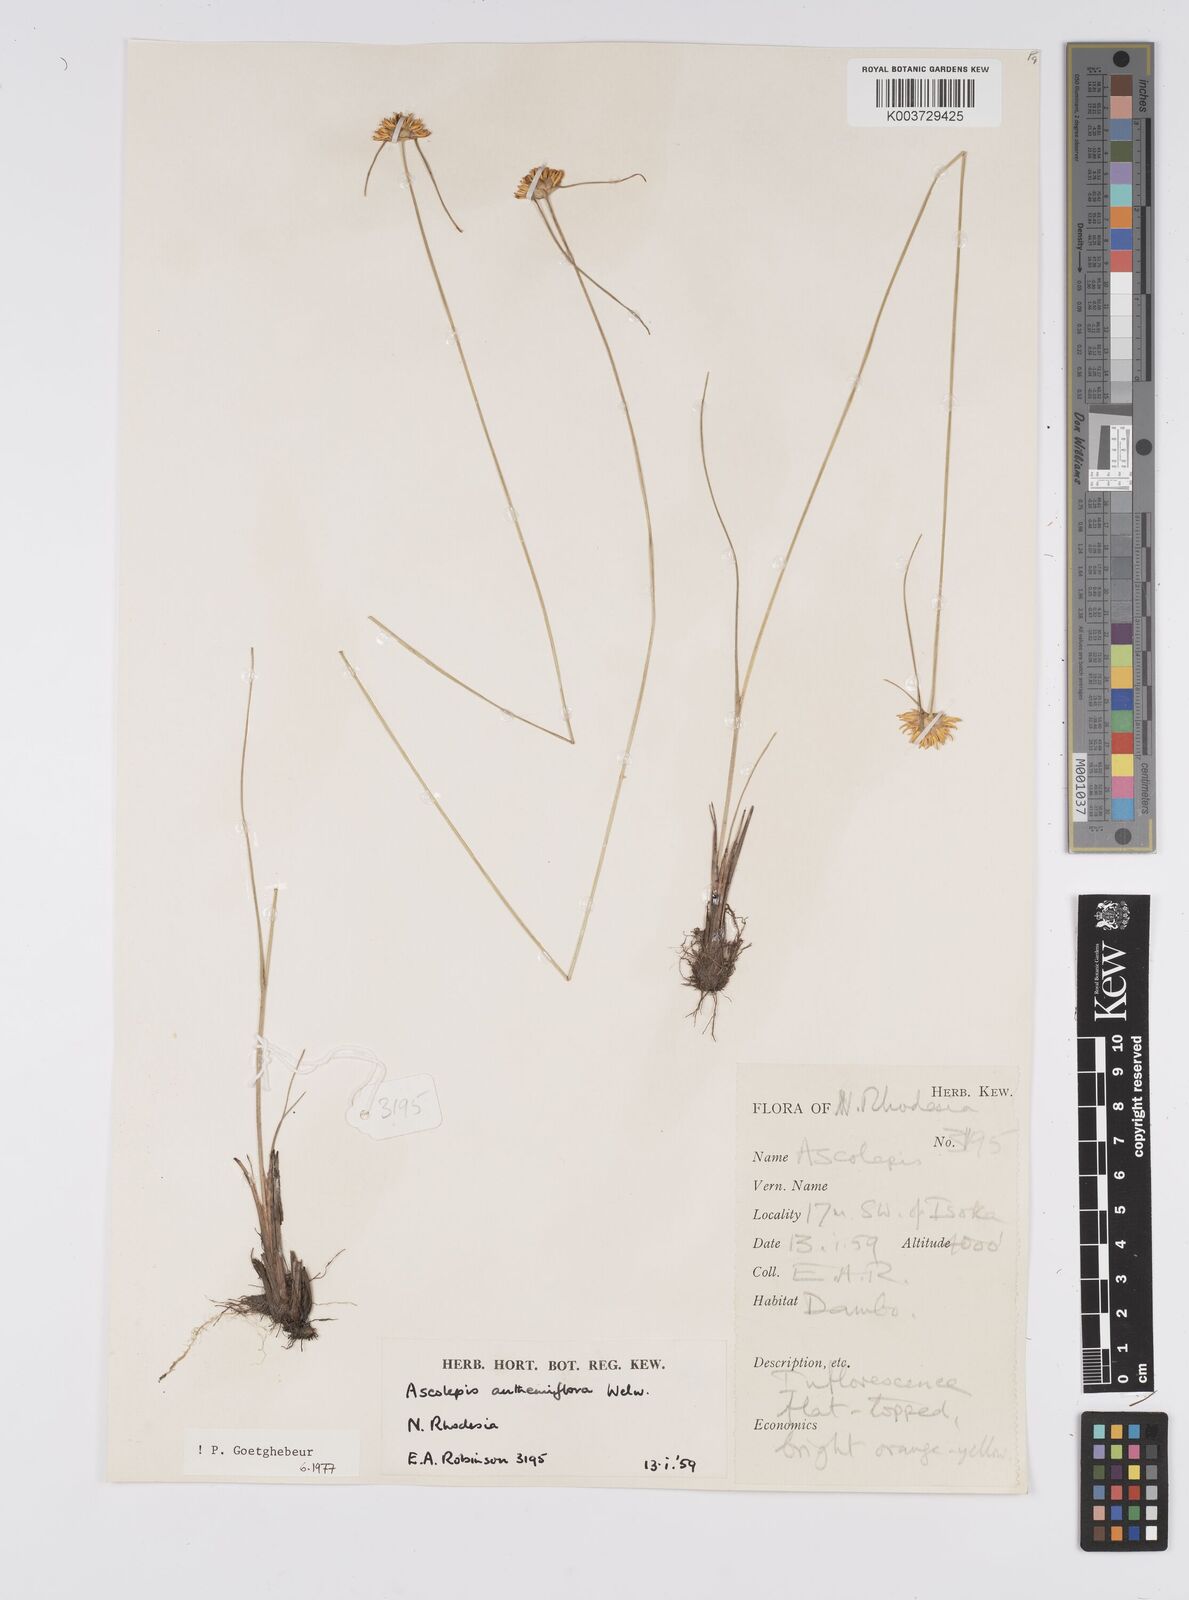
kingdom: Plantae
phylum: Tracheophyta
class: Liliopsida
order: Poales
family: Cyperaceae
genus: Cyperus
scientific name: Cyperus
